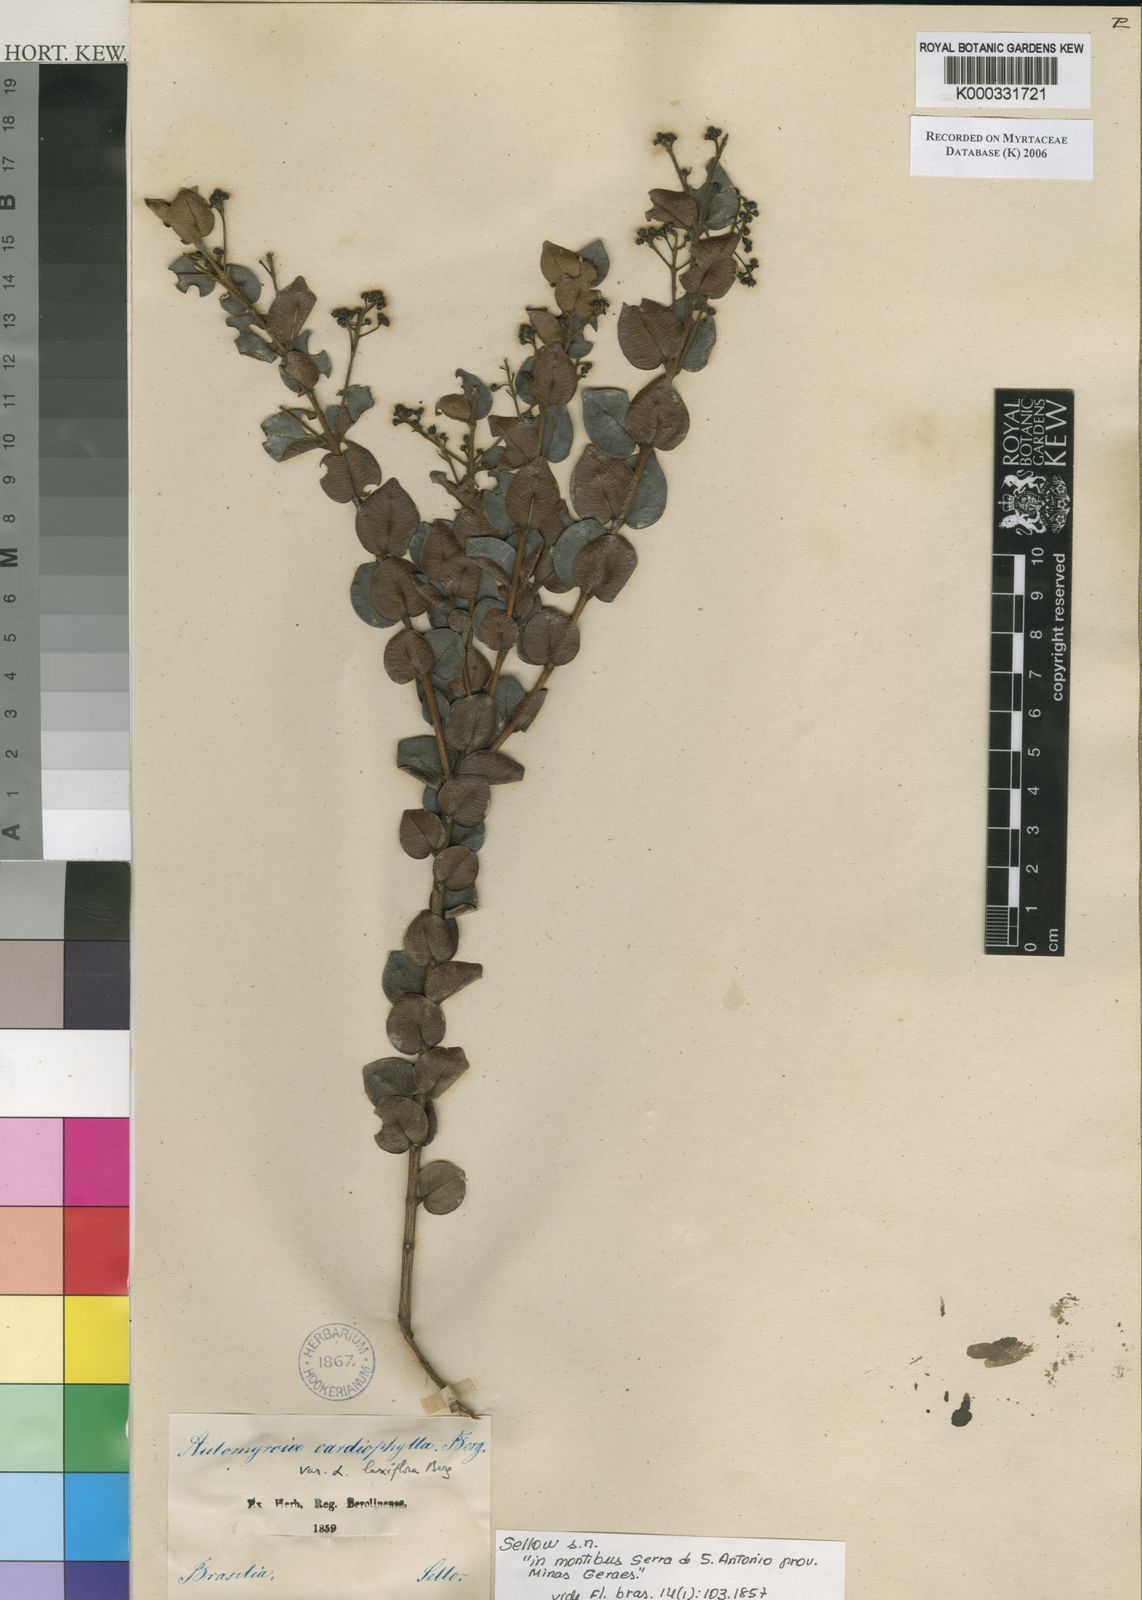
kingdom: Plantae
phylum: Tracheophyta
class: Magnoliopsida
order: Myrtales
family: Myrtaceae
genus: Myrcia
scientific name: Myrcia altera
